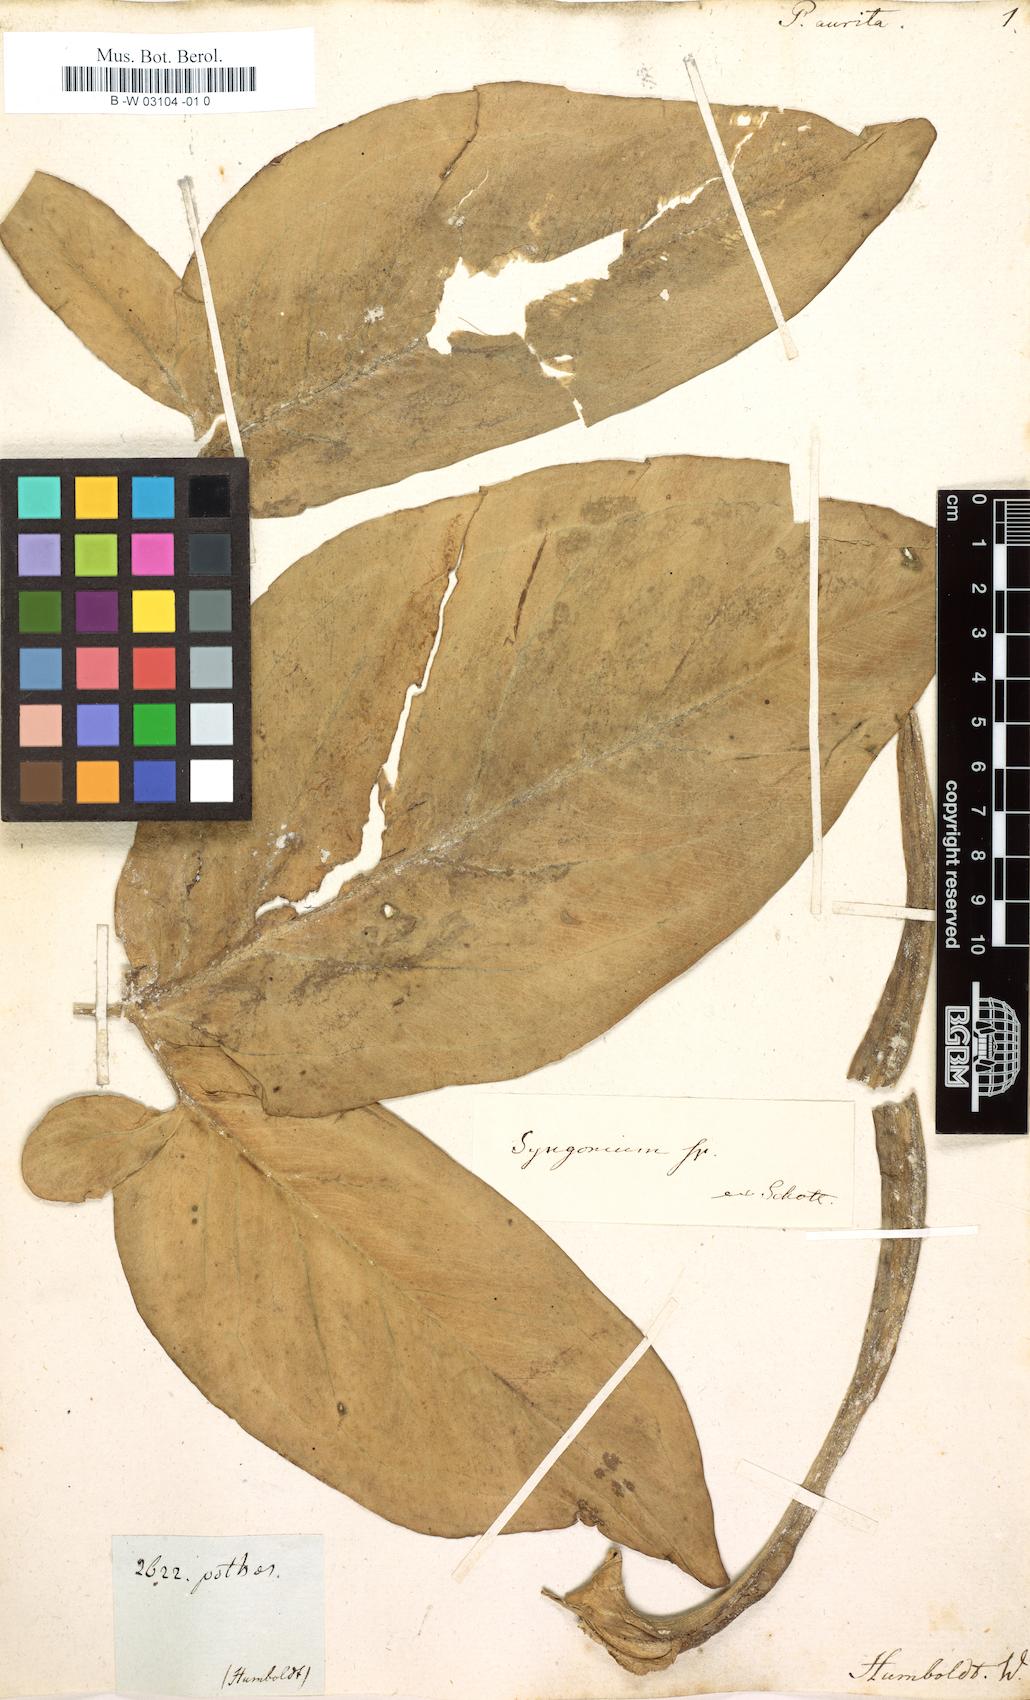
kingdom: Plantae
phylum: Tracheophyta
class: Liliopsida
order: Alismatales
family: Araceae
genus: Syngonium
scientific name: Syngonium podophyllum
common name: American evergreen
